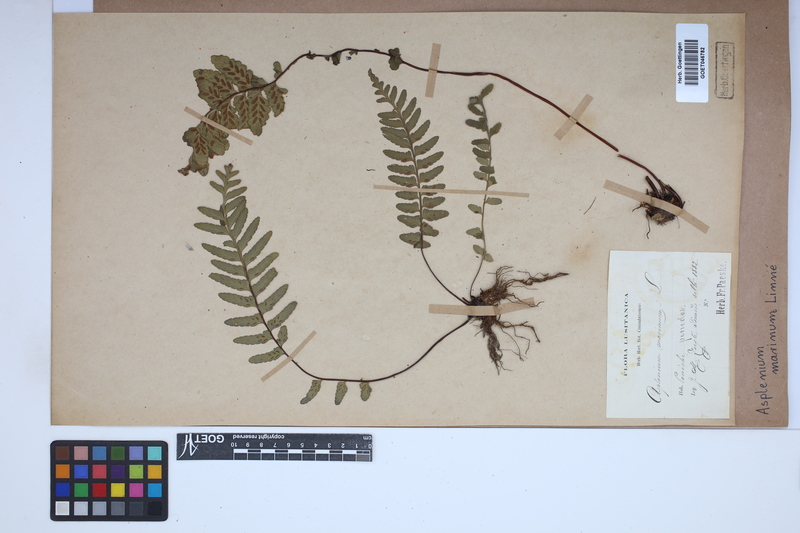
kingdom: Plantae
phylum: Tracheophyta
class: Polypodiopsida
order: Polypodiales
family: Aspleniaceae
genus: Asplenium
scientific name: Asplenium marinum
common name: Sea spleenwort
